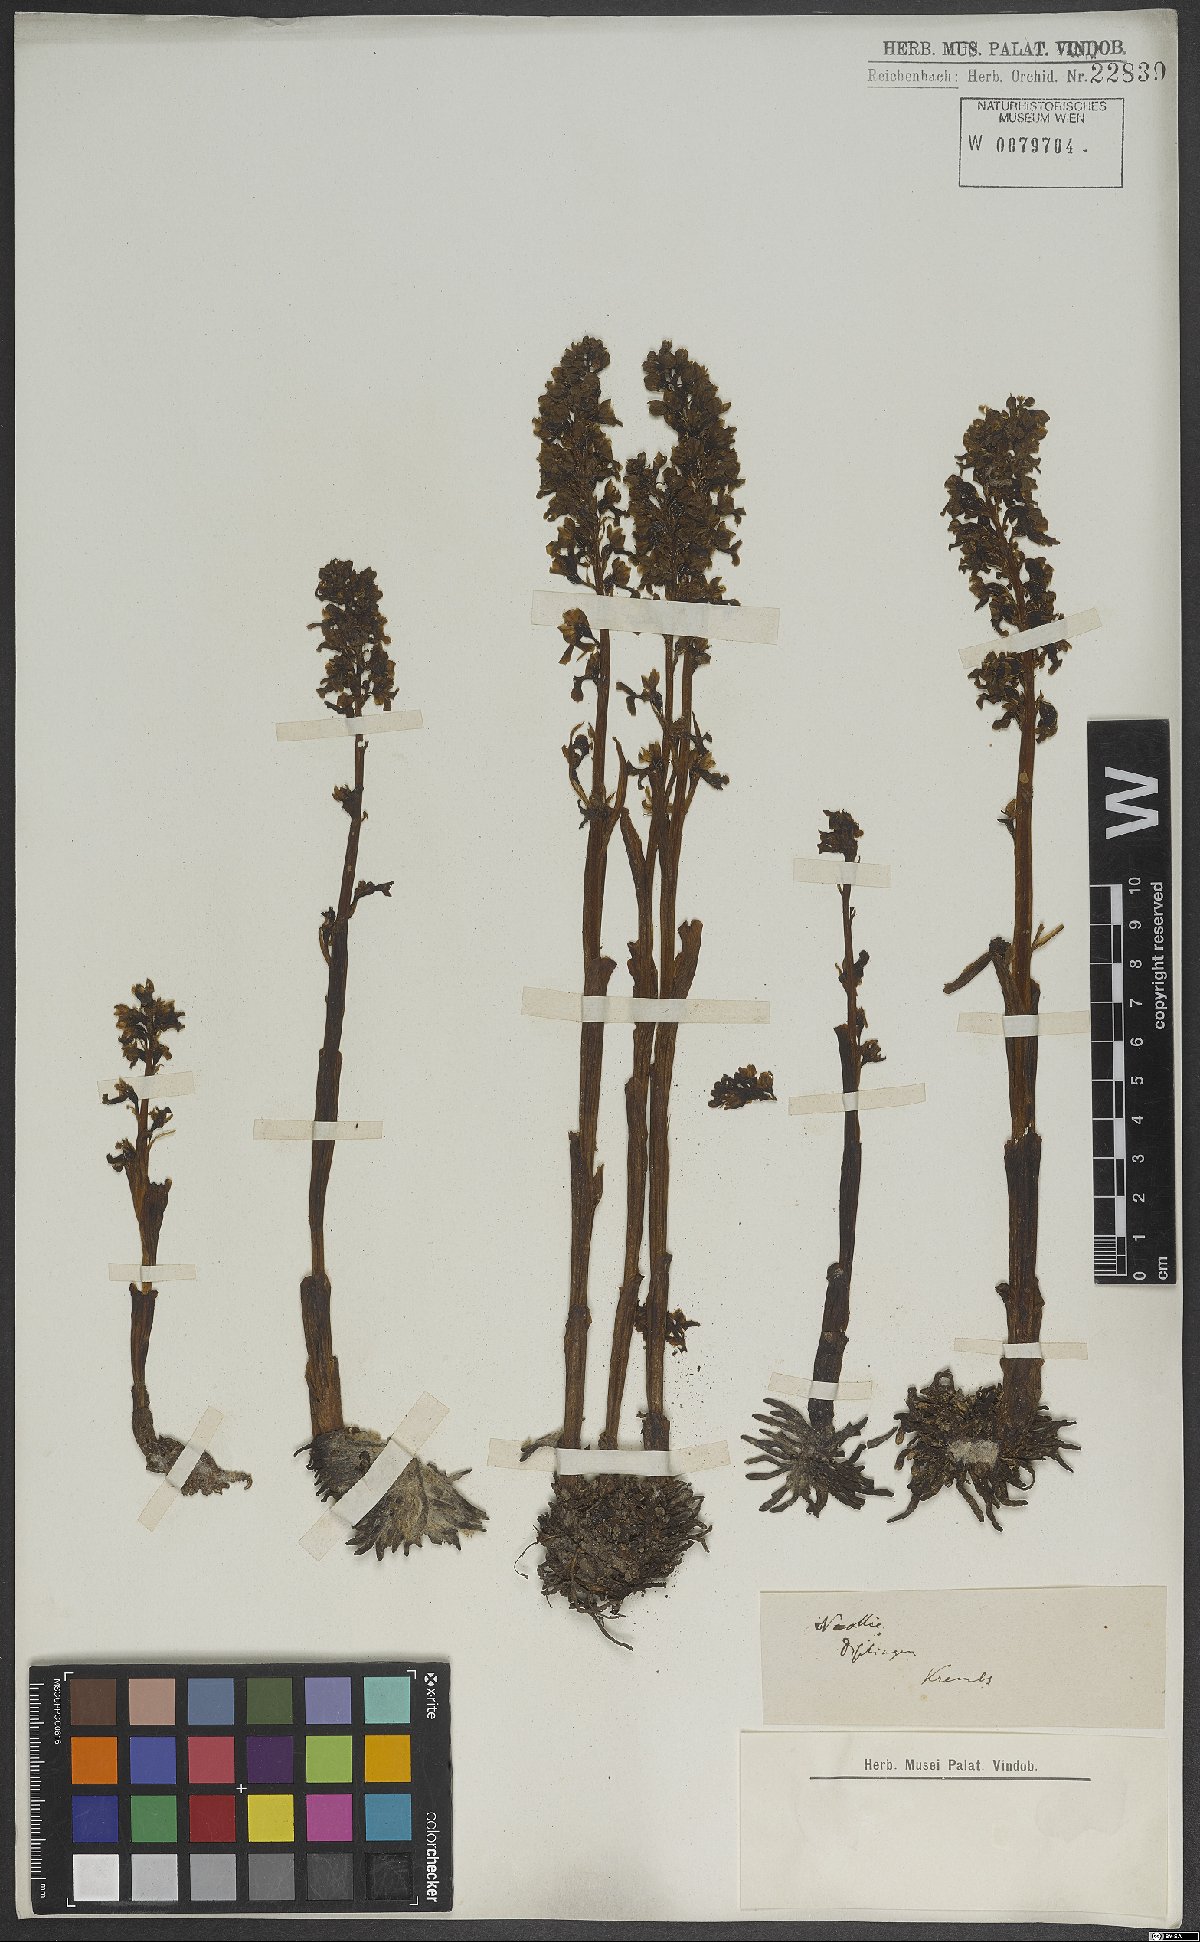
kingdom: Plantae
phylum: Tracheophyta
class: Liliopsida
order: Asparagales
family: Orchidaceae
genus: Neottia
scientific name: Neottia nidus-avis
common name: Bird's-nest orchid
